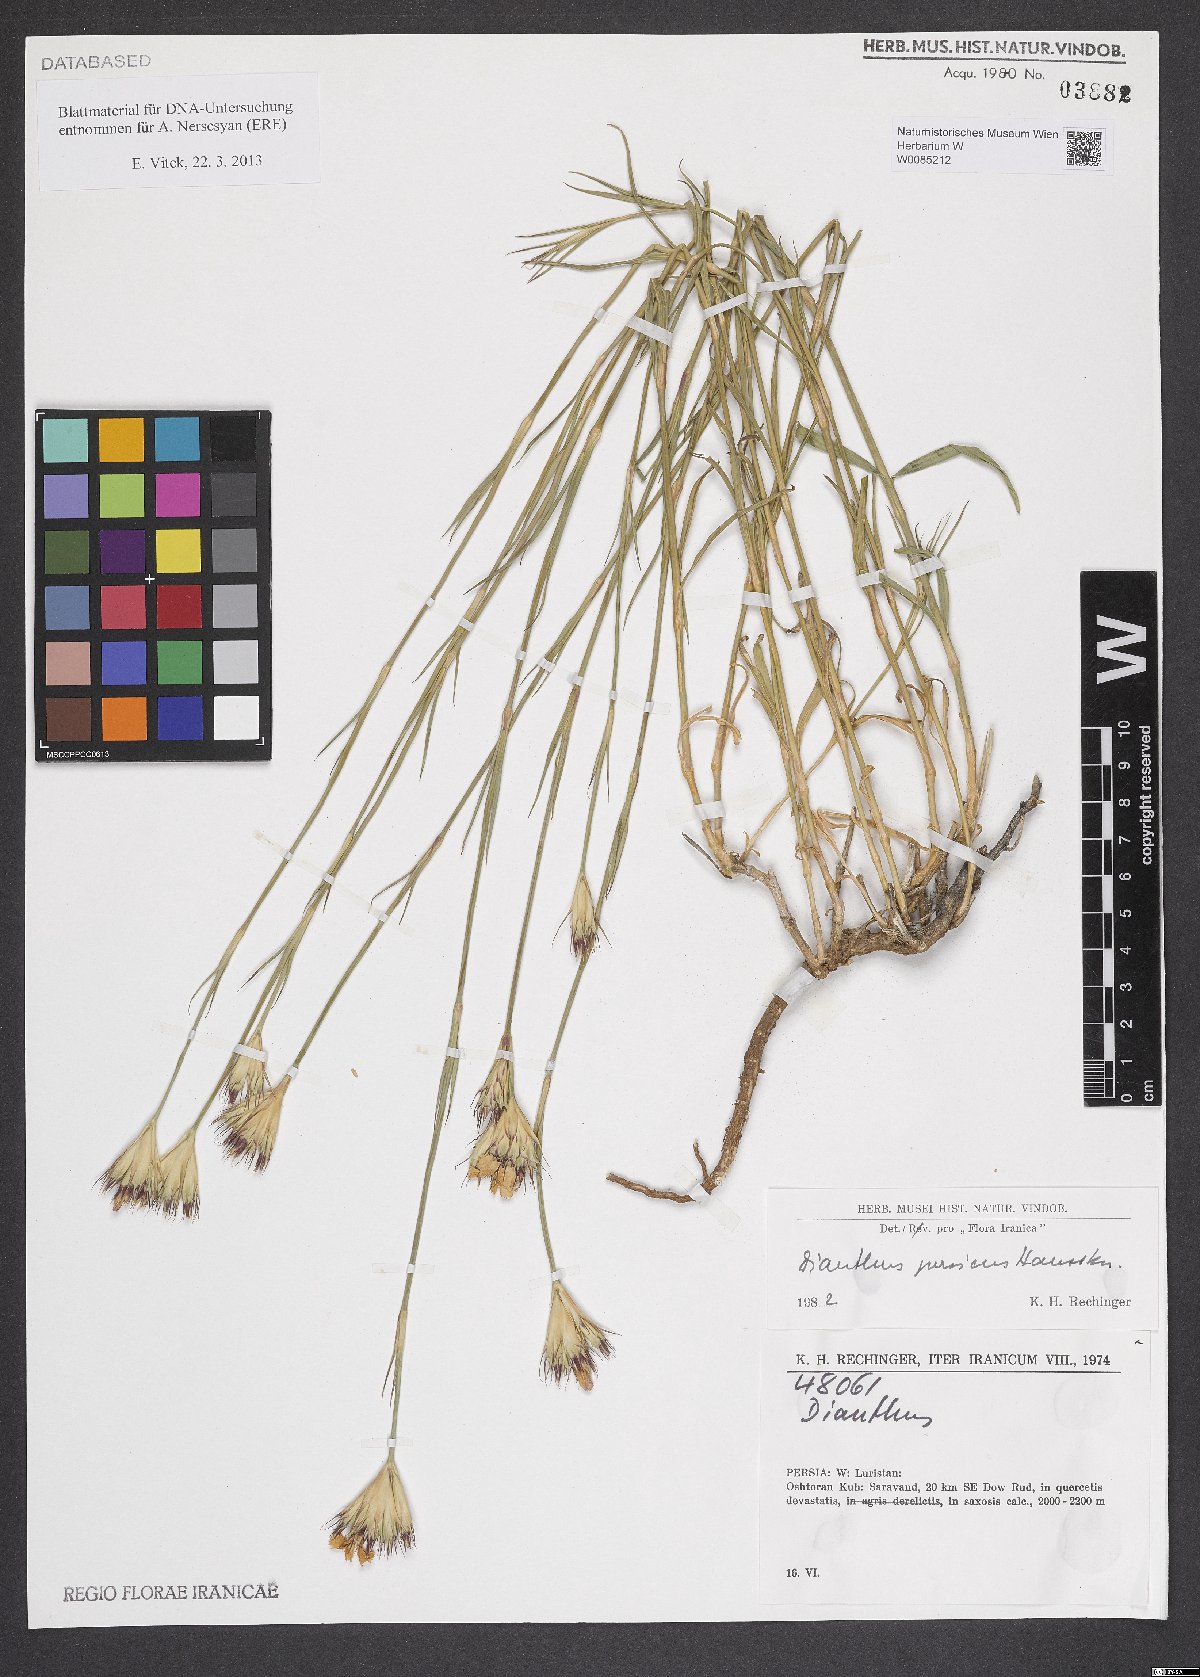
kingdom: Plantae
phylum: Tracheophyta
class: Magnoliopsida
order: Caryophyllales
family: Caryophyllaceae
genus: Dianthus
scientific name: Dianthus persicus
